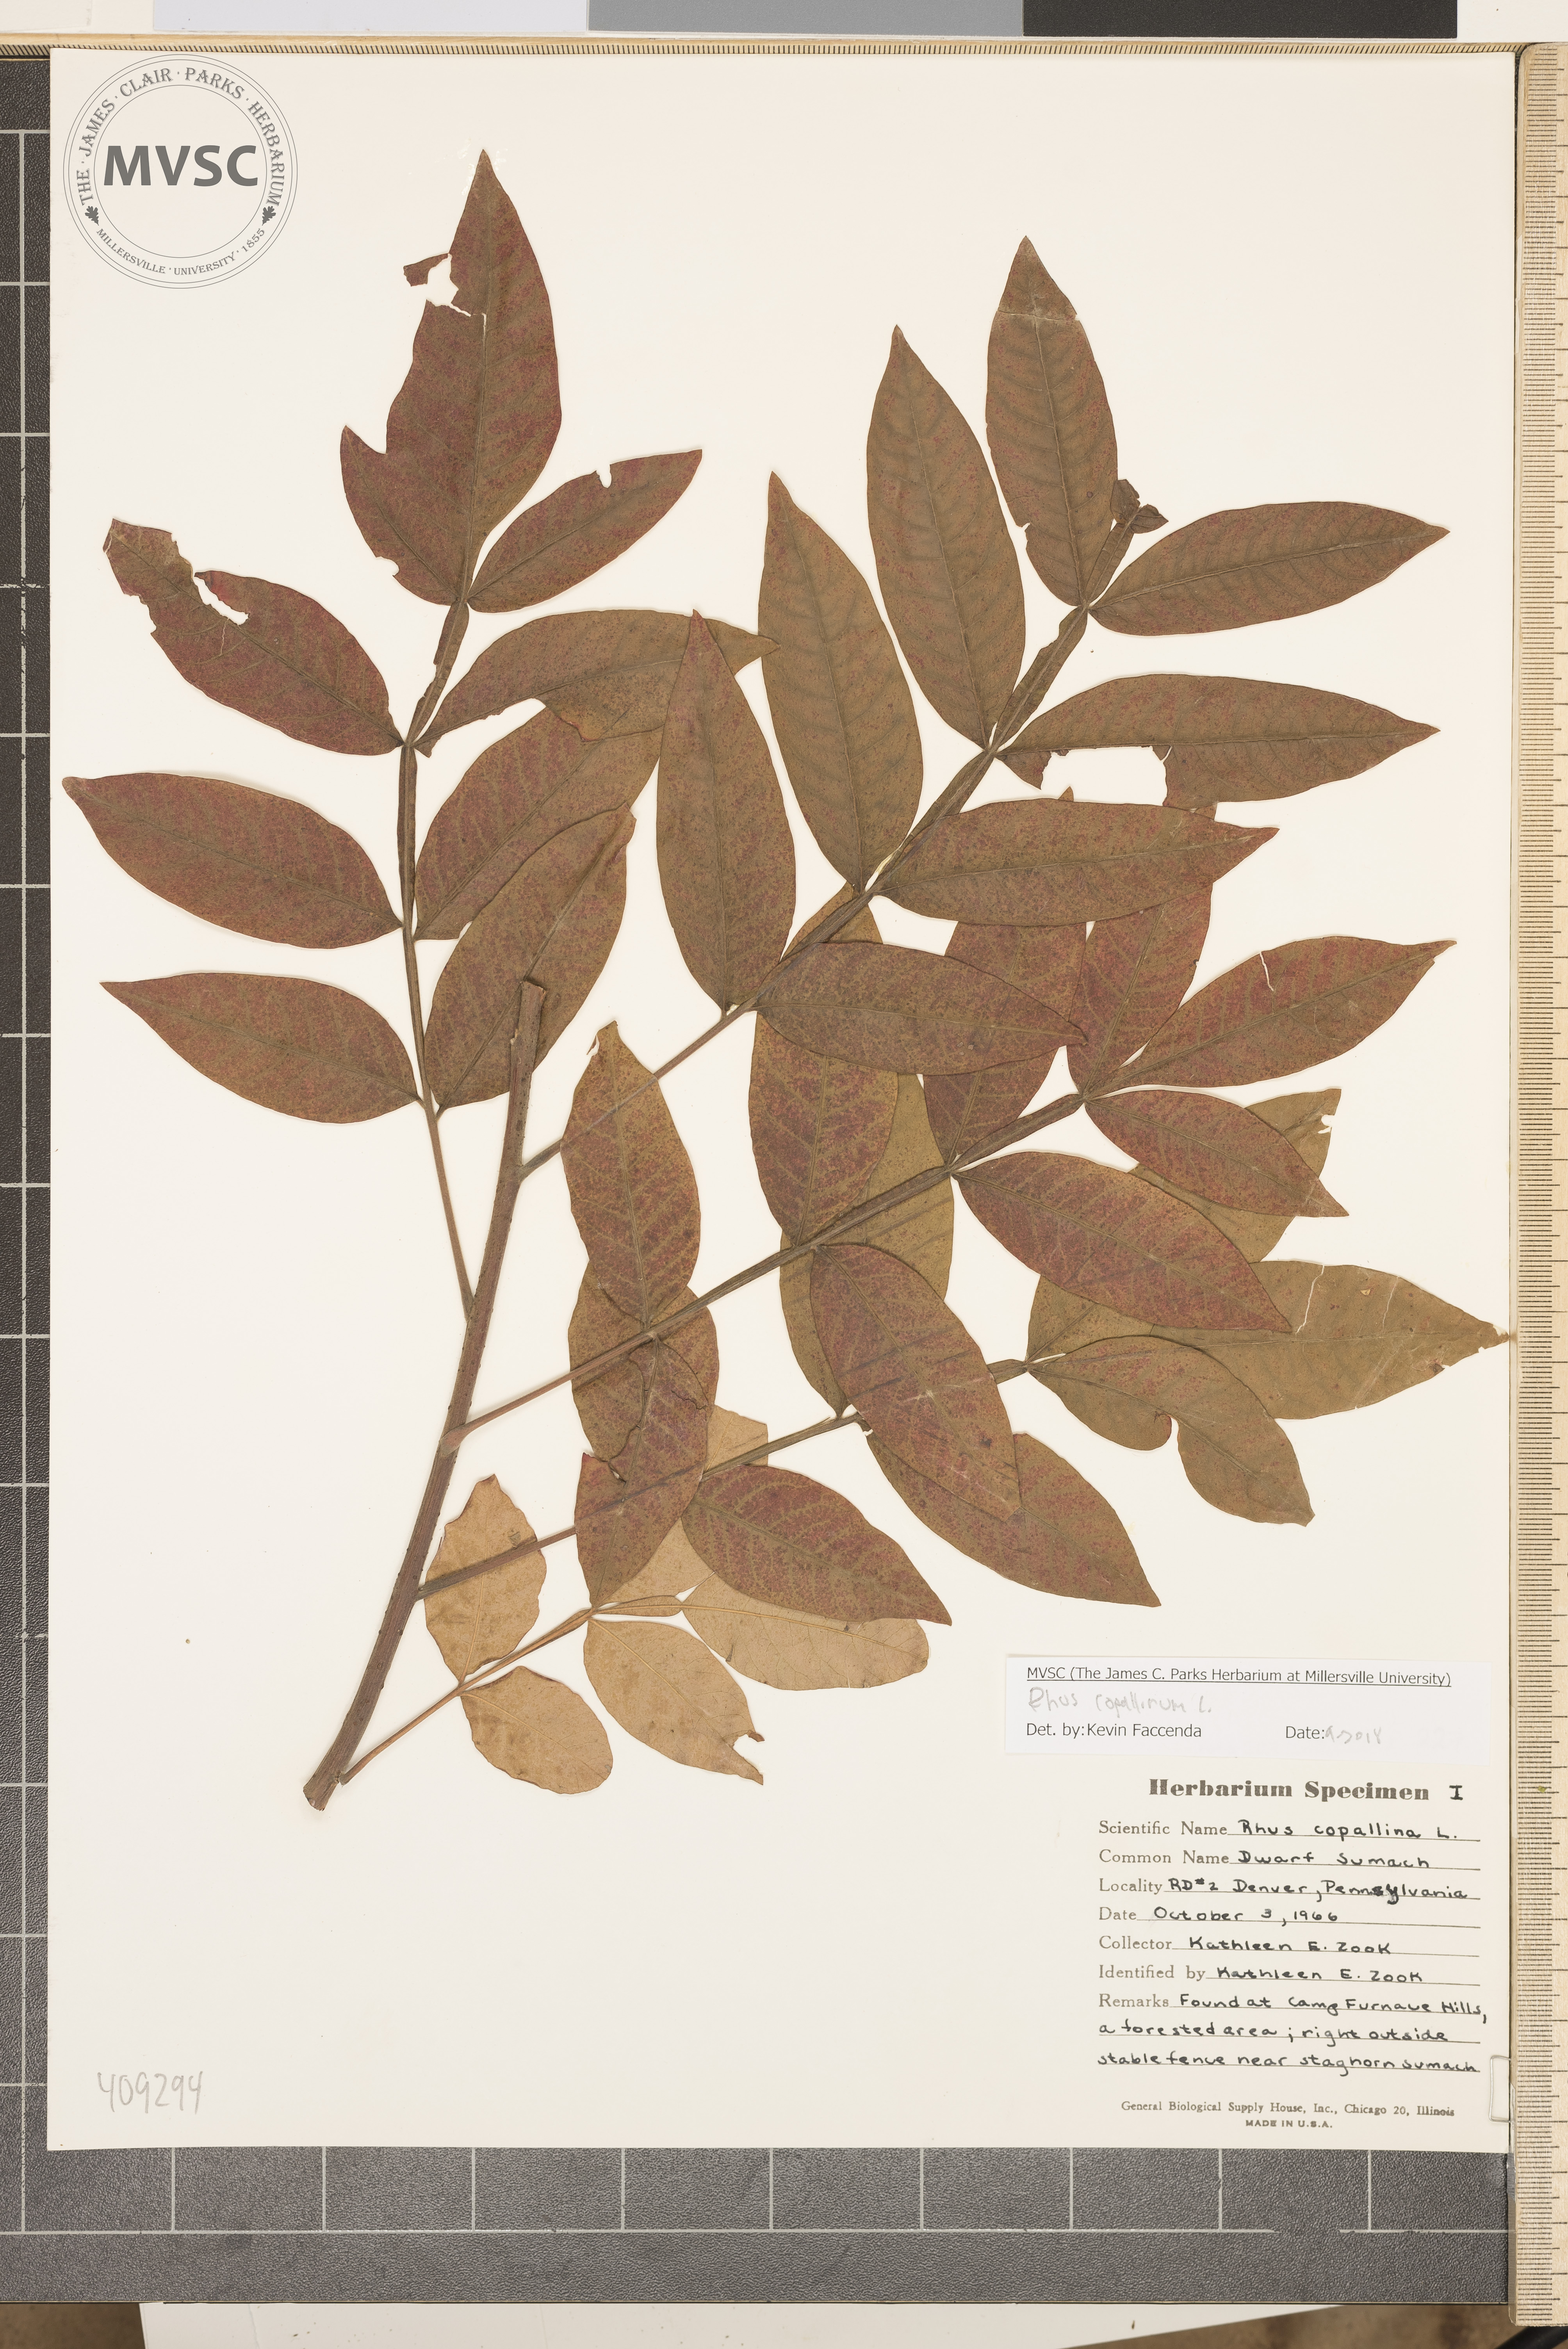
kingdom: Plantae
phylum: Tracheophyta
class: Magnoliopsida
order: Sapindales
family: Anacardiaceae
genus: Rhus
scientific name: Rhus copallina
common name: Shining sumac
